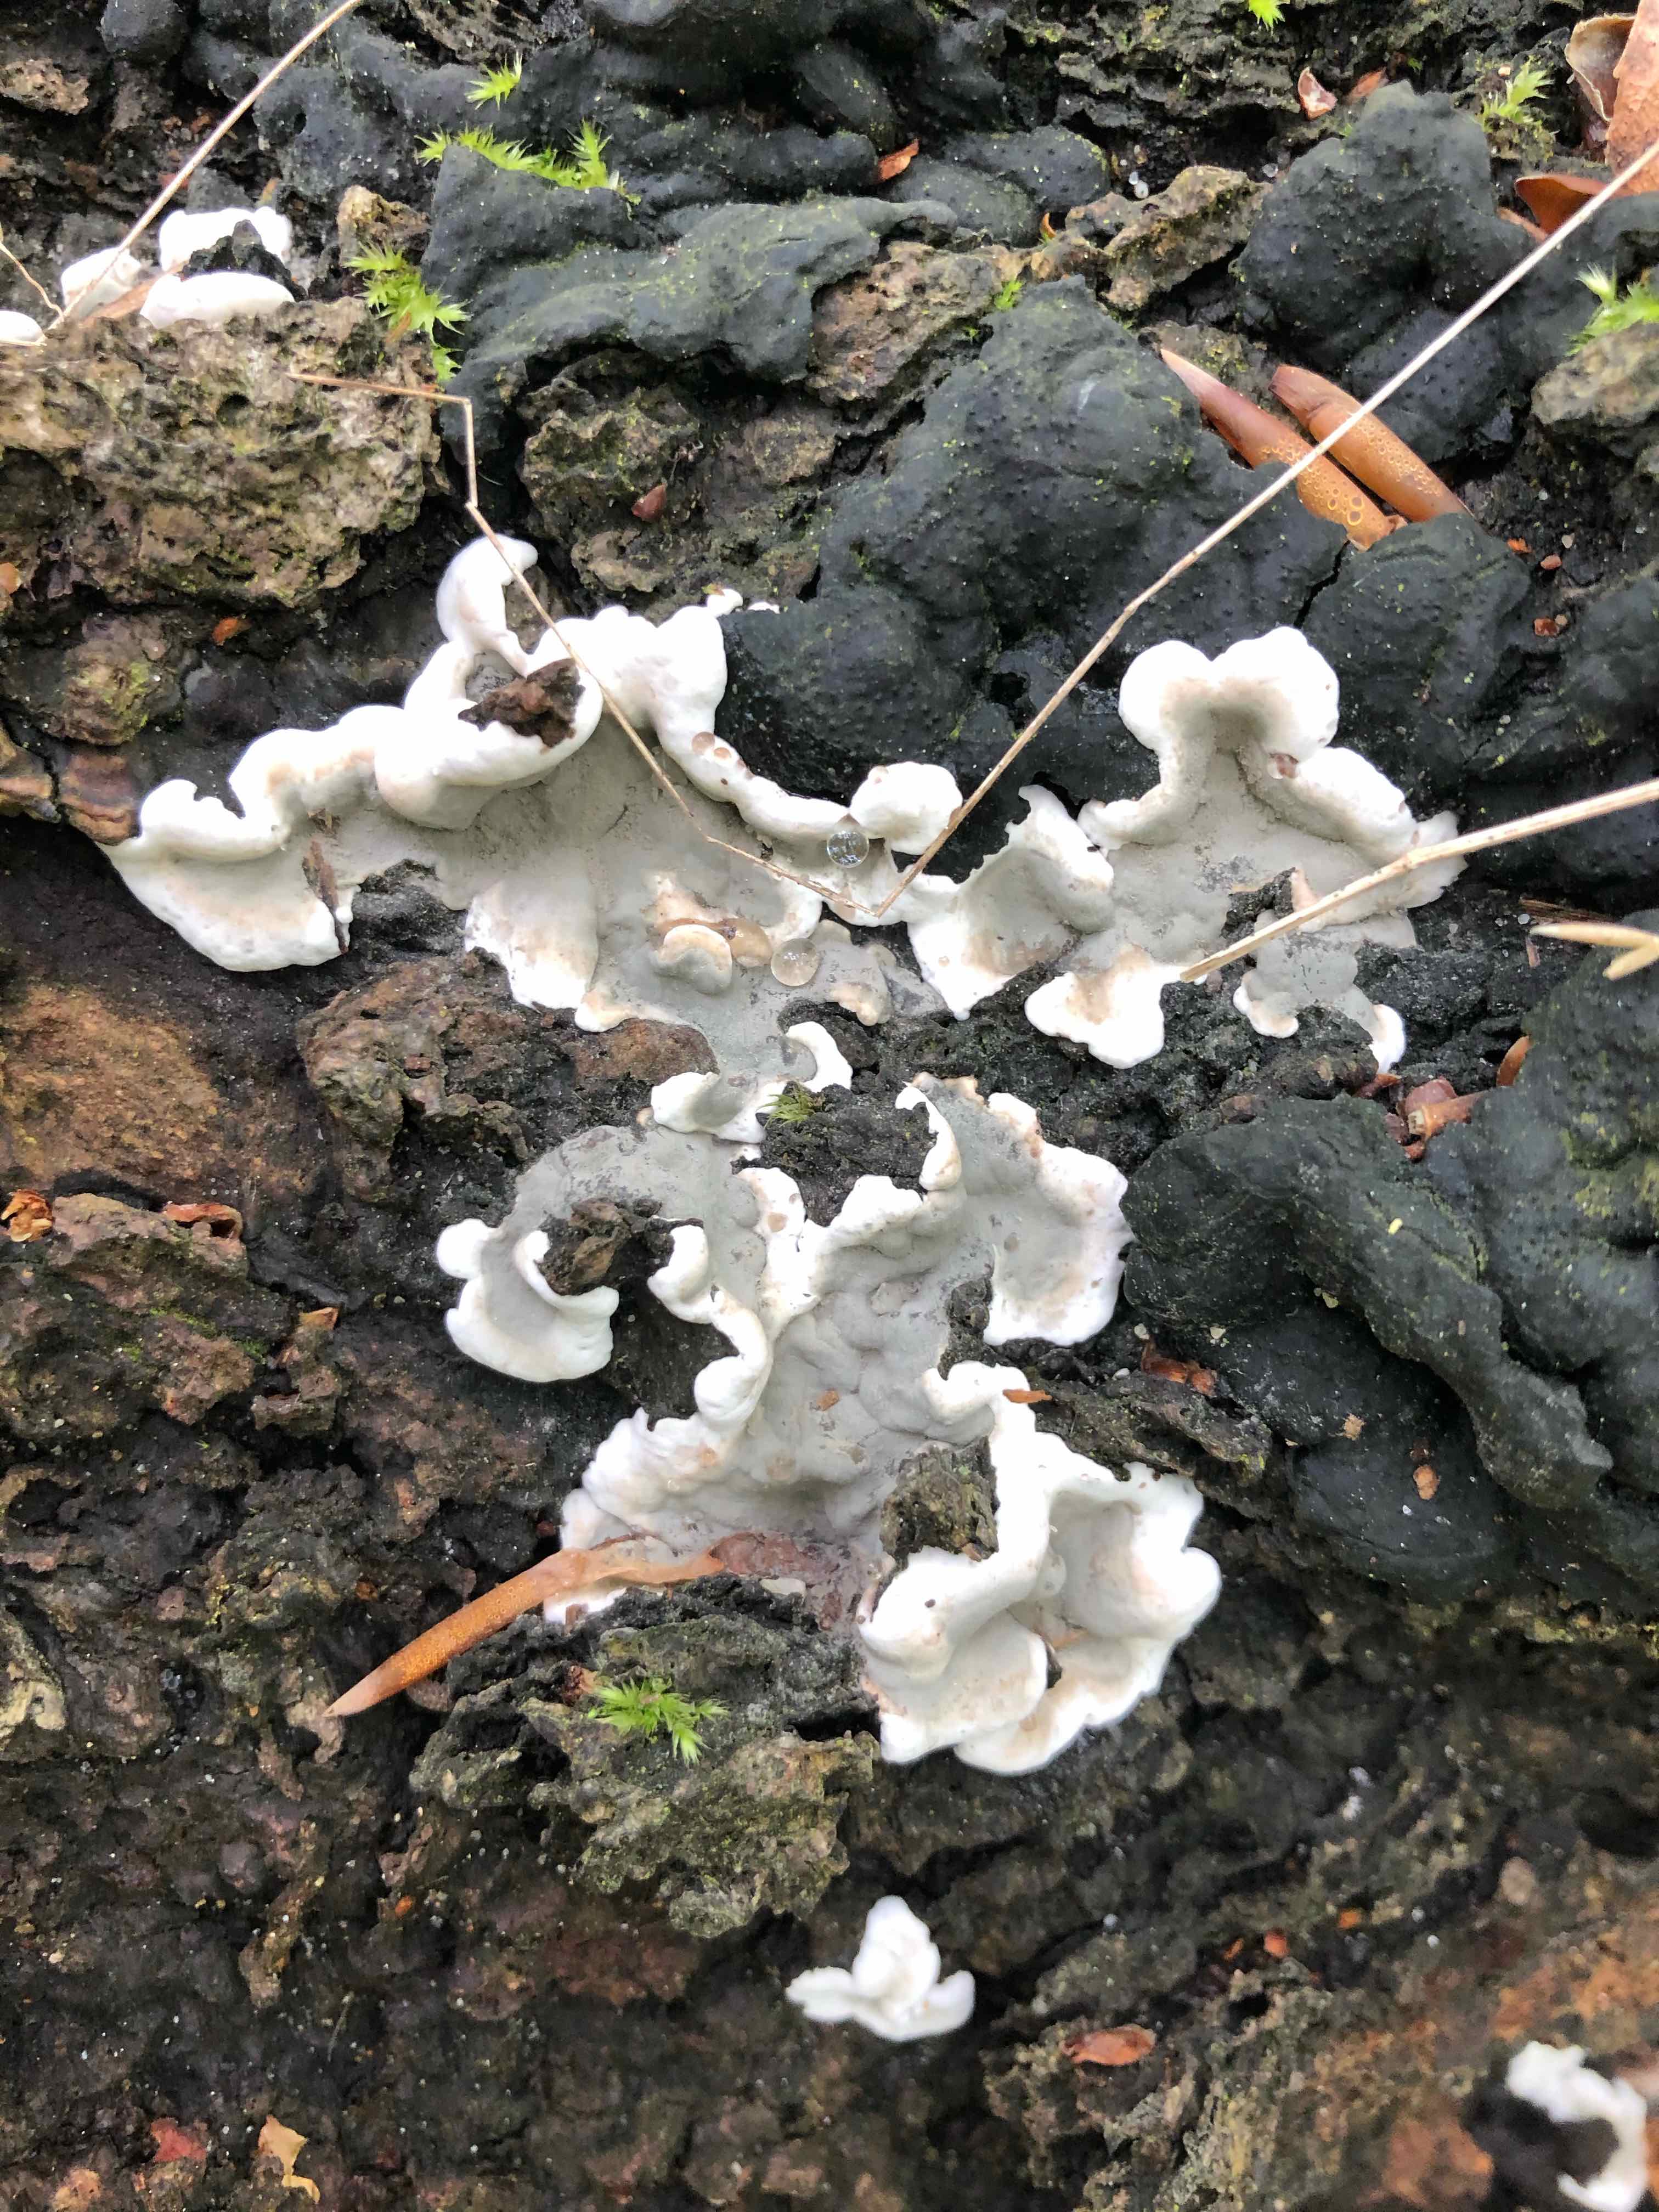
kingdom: Fungi
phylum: Ascomycota
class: Sordariomycetes
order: Xylariales
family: Xylariaceae
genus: Kretzschmaria
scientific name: Kretzschmaria deusta
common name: stor kulsvamp
